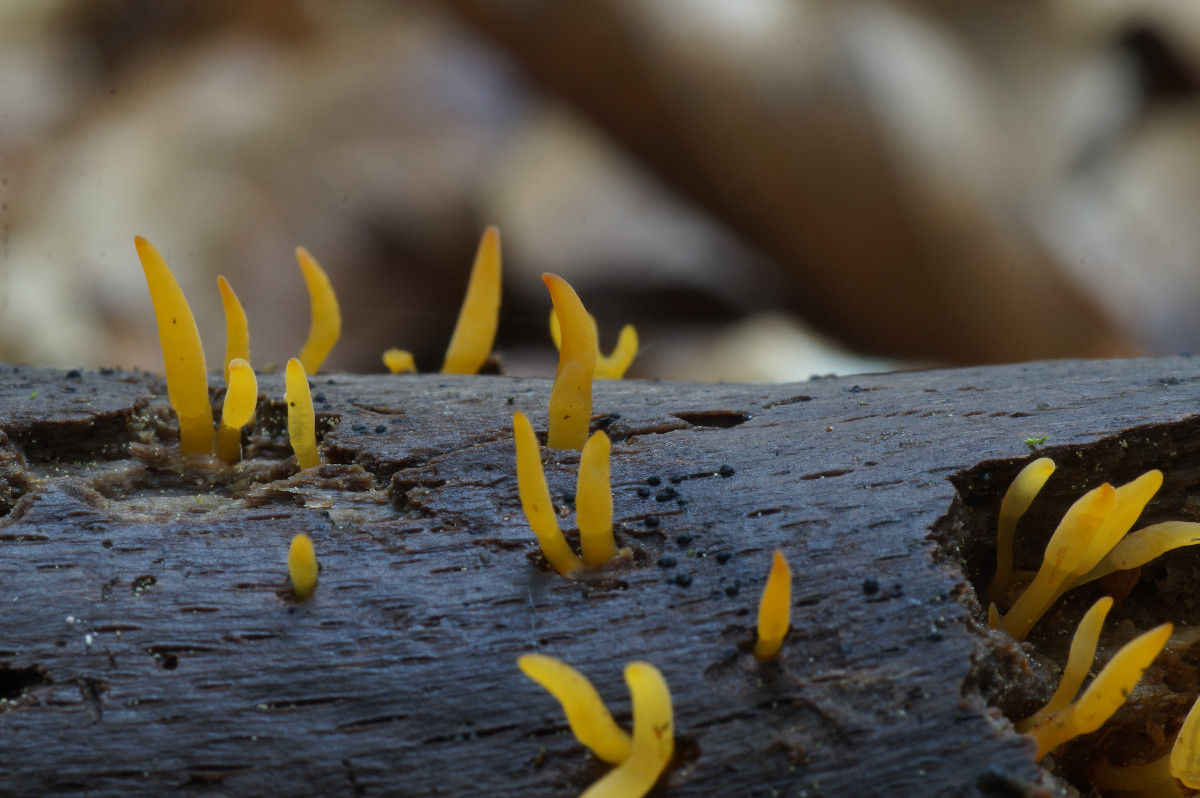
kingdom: Fungi
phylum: Basidiomycota
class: Dacrymycetes
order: Dacrymycetales
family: Dacrymycetaceae
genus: Calocera
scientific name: Calocera cornea
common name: liden guldgaffel
